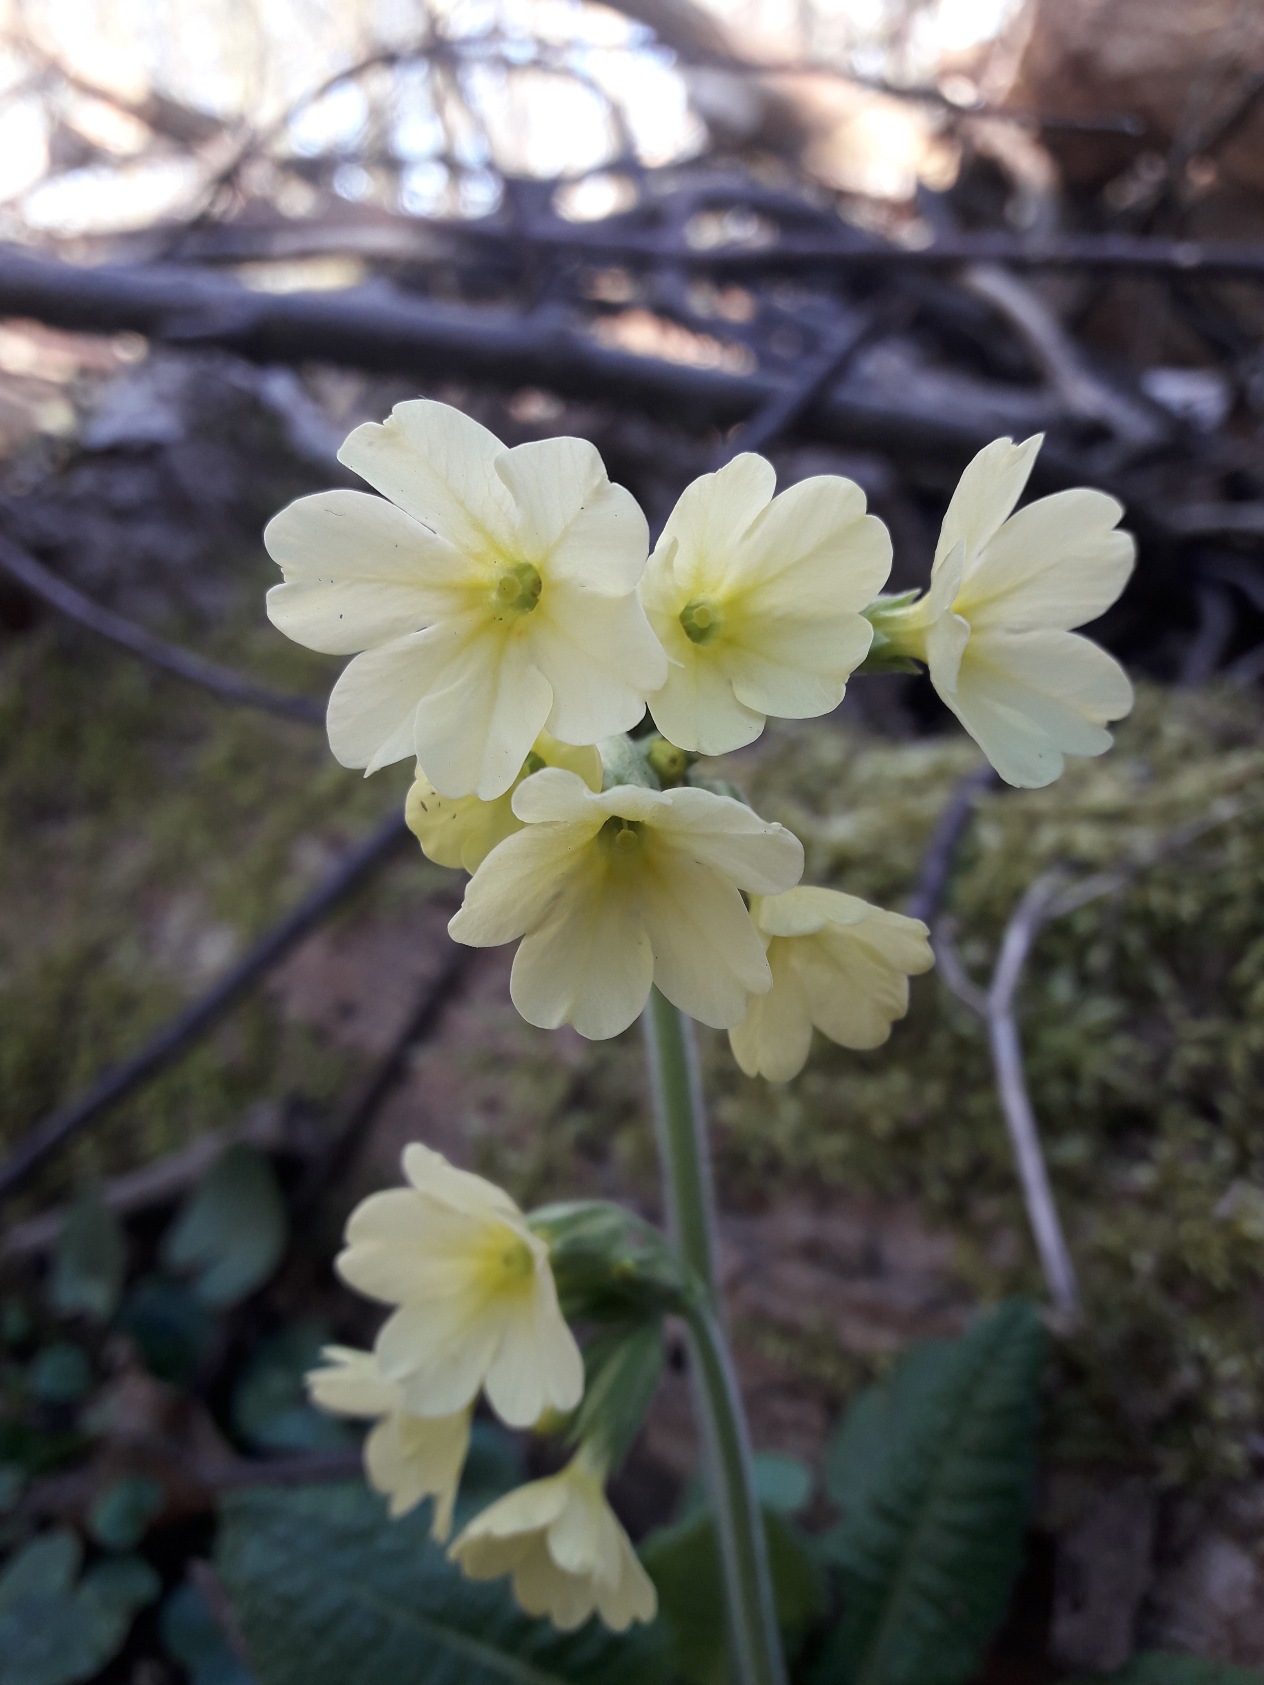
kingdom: Plantae
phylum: Tracheophyta
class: Magnoliopsida
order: Ericales
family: Primulaceae
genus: Primula
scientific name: Primula elatior
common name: Fladkravet kodriver
